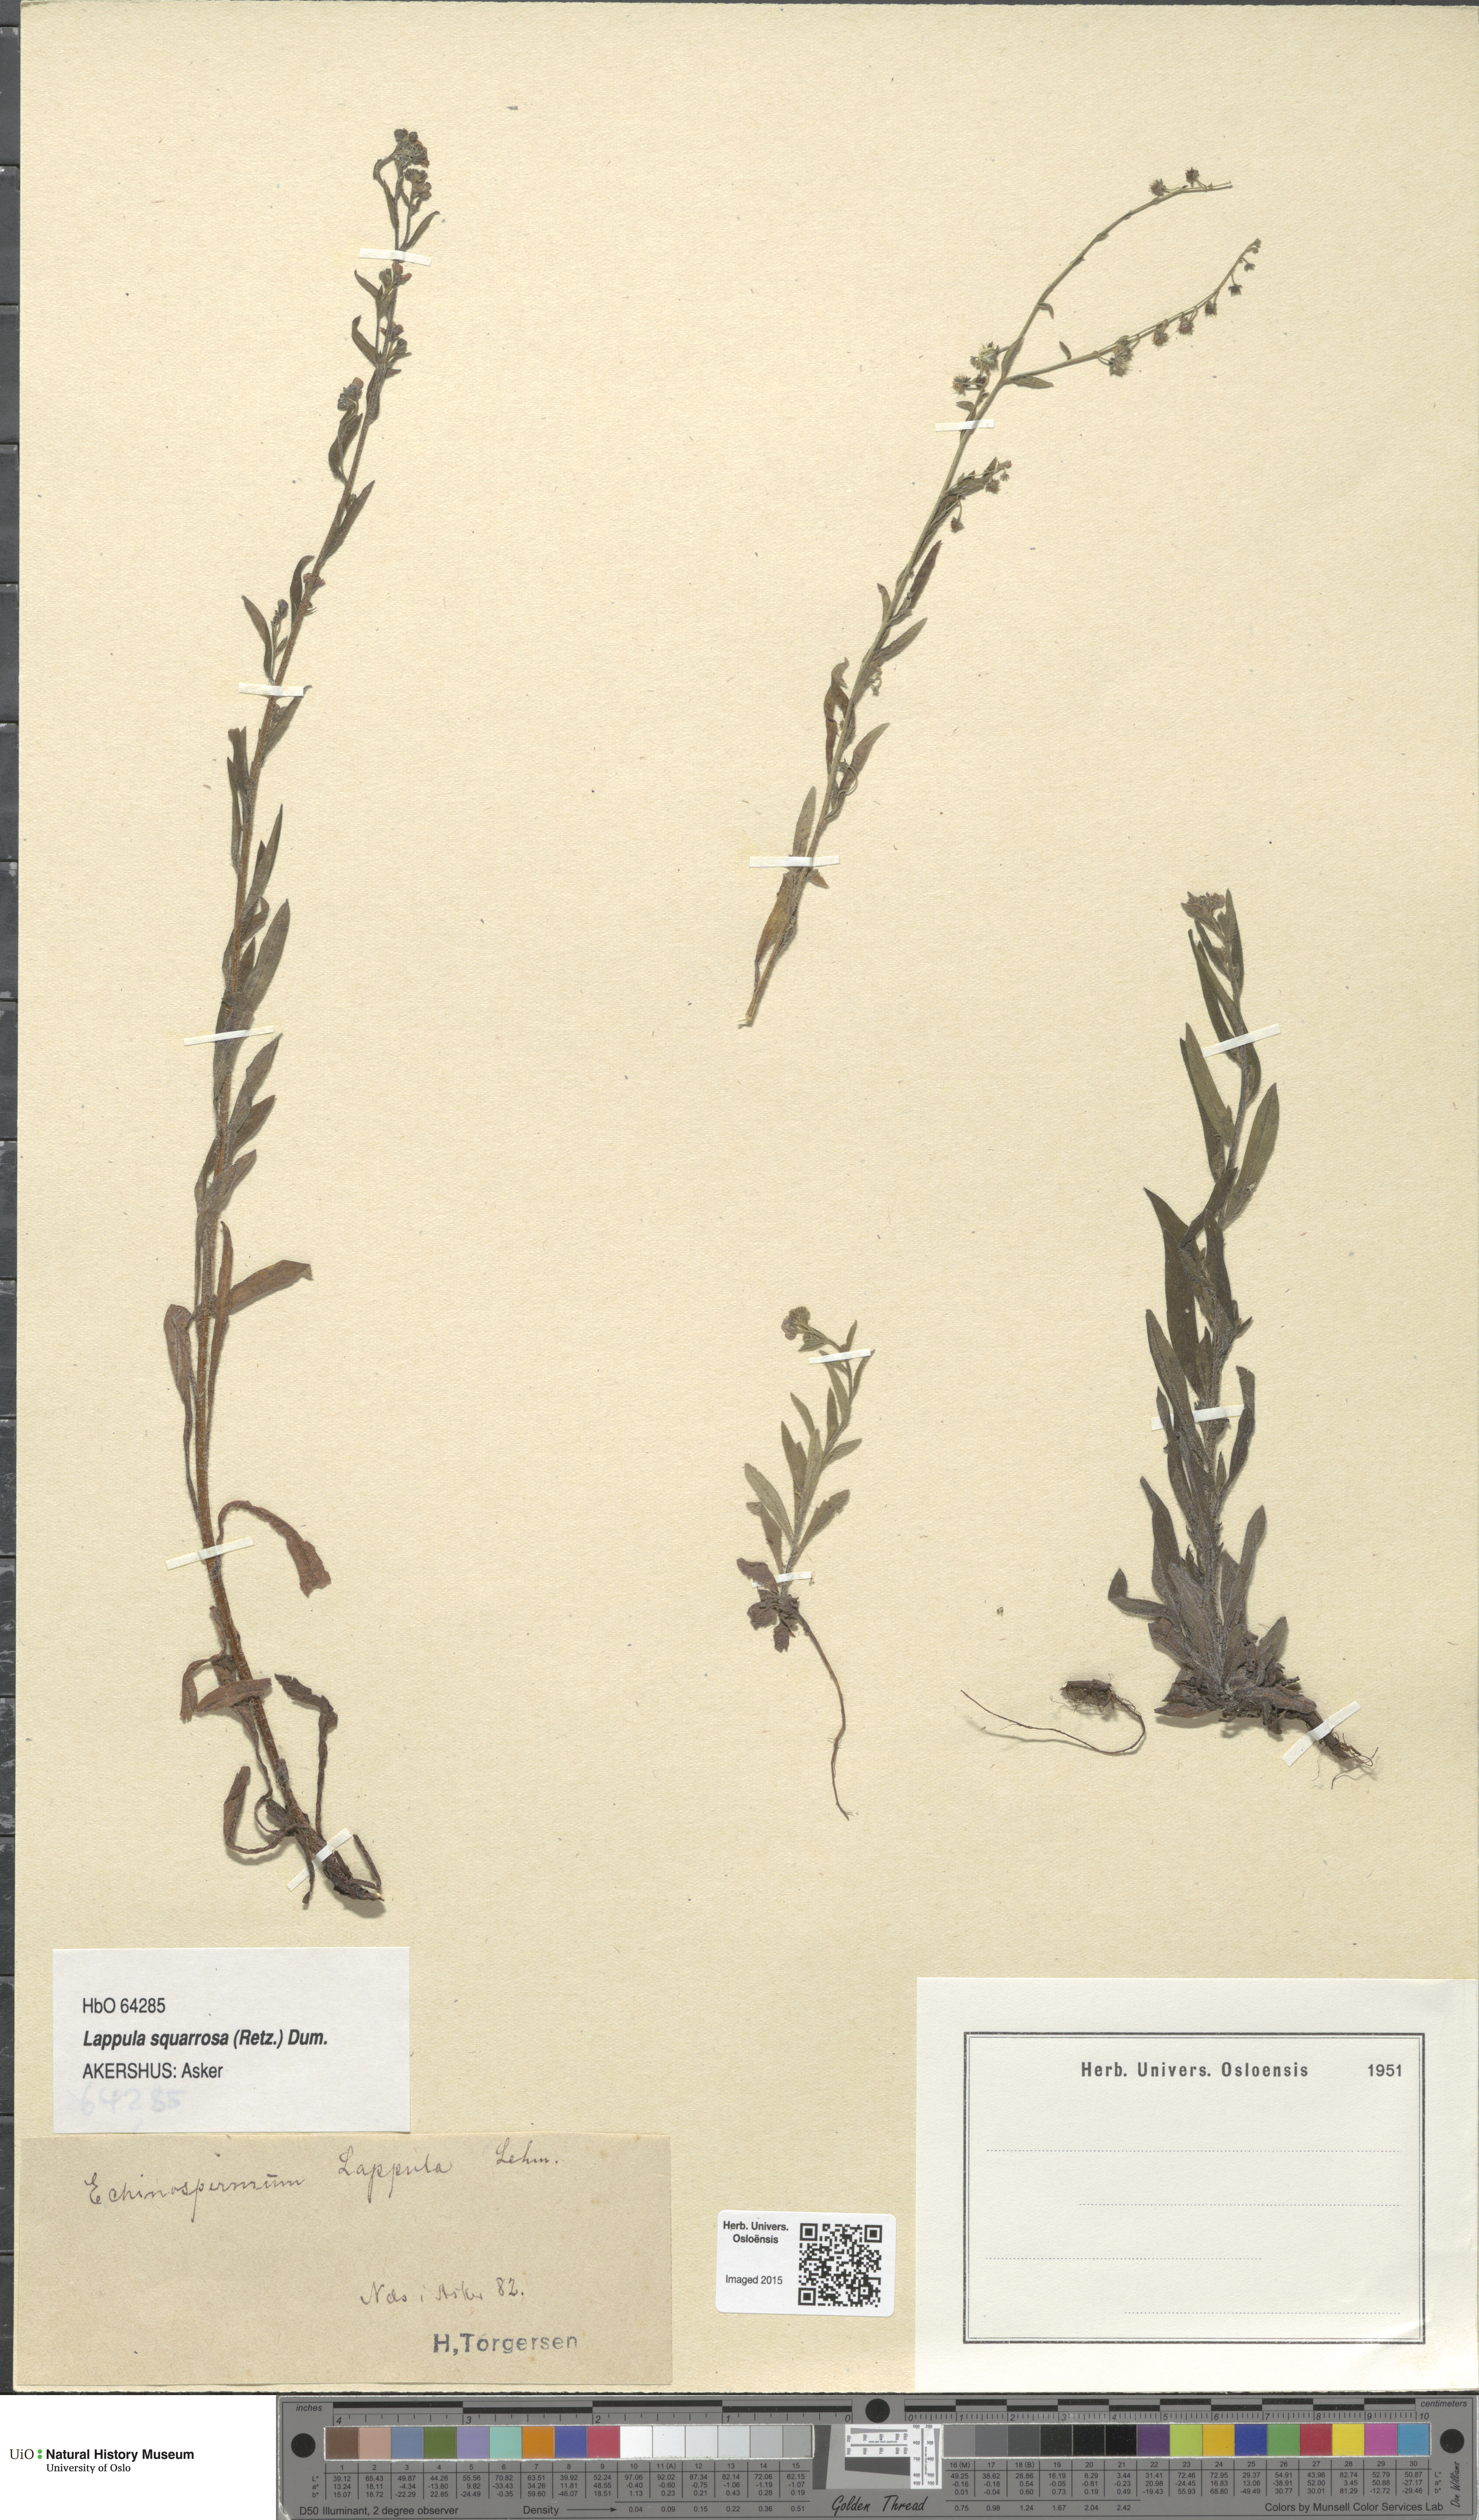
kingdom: Plantae
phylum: Tracheophyta
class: Magnoliopsida
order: Boraginales
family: Boraginaceae
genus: Lappula
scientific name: Lappula squarrosa
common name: European stickseed
